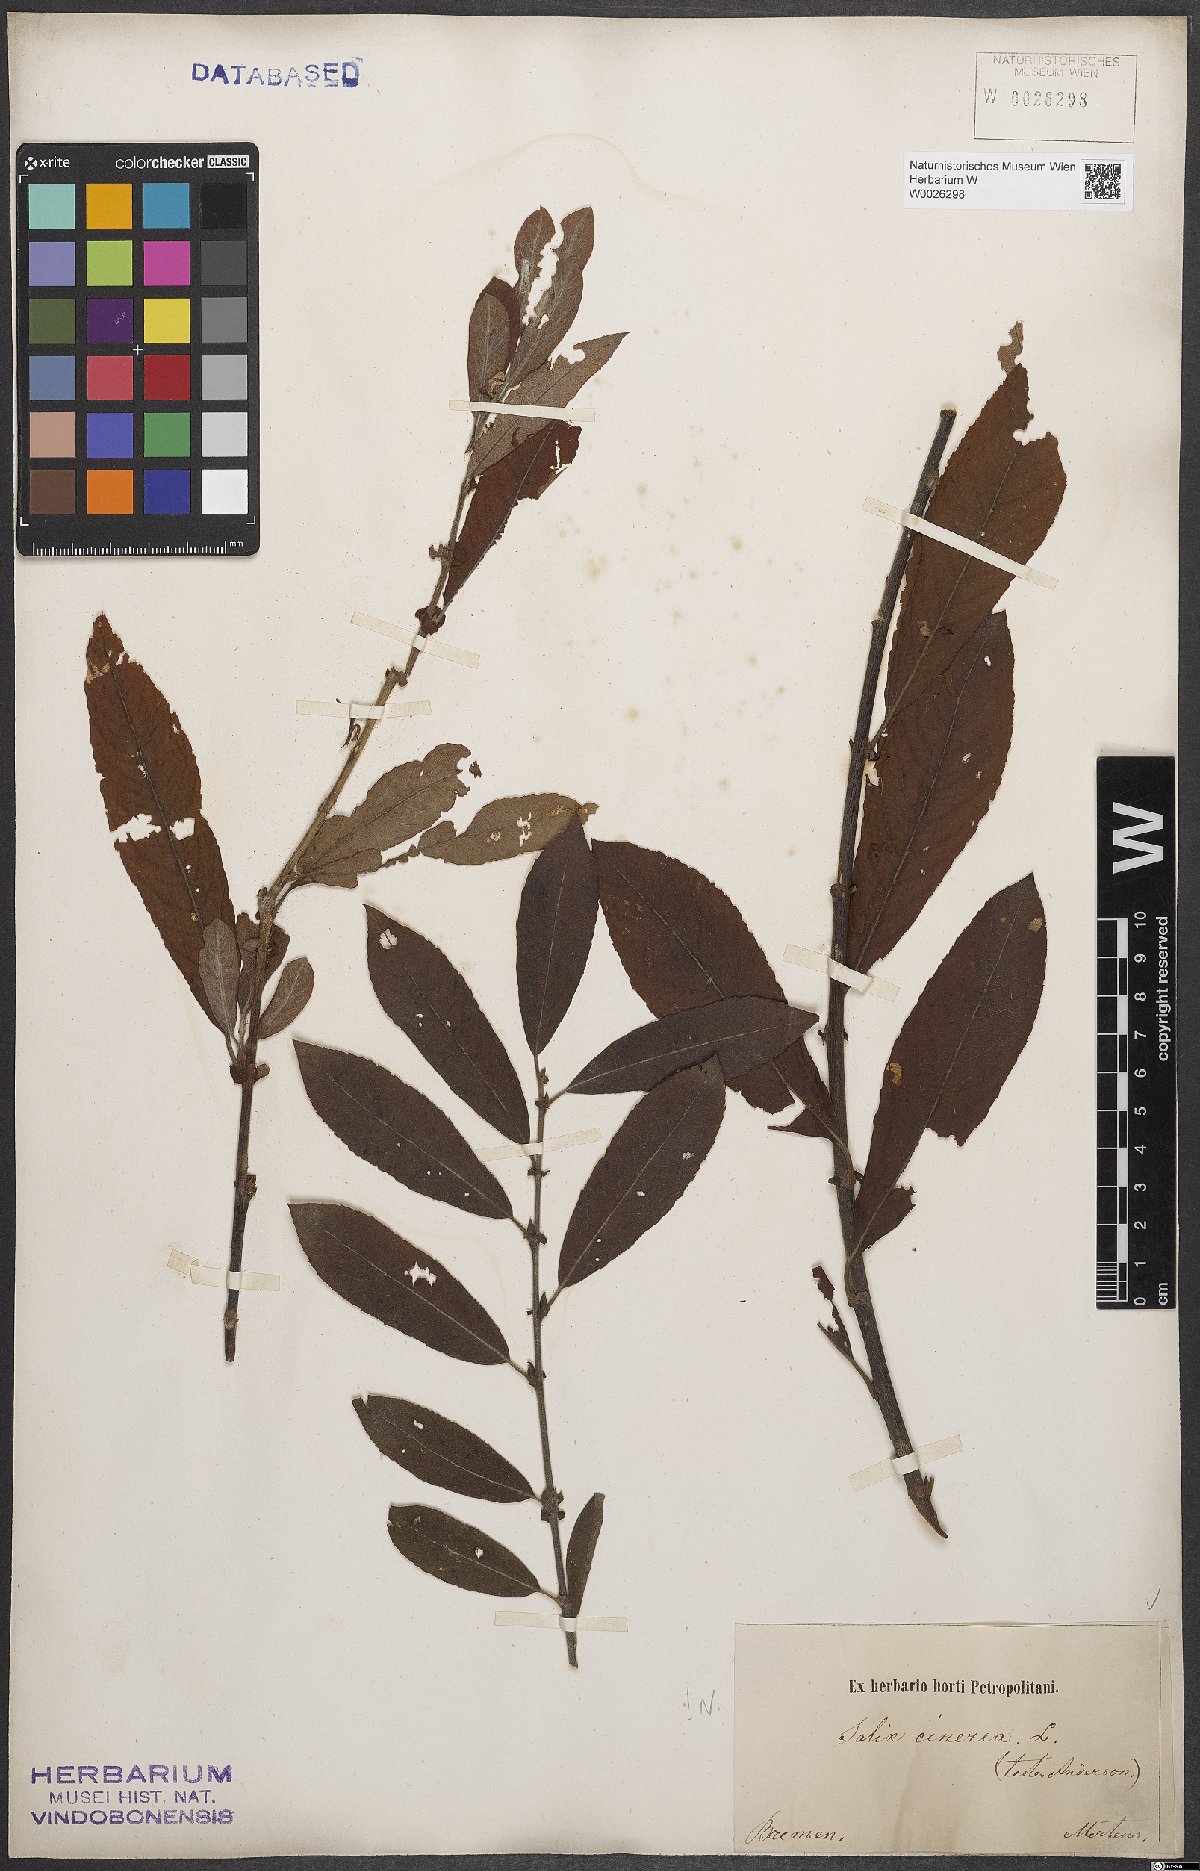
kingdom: Plantae
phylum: Tracheophyta
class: Magnoliopsida
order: Malpighiales
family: Salicaceae
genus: Salix
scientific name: Salix cinerea
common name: Common sallow
